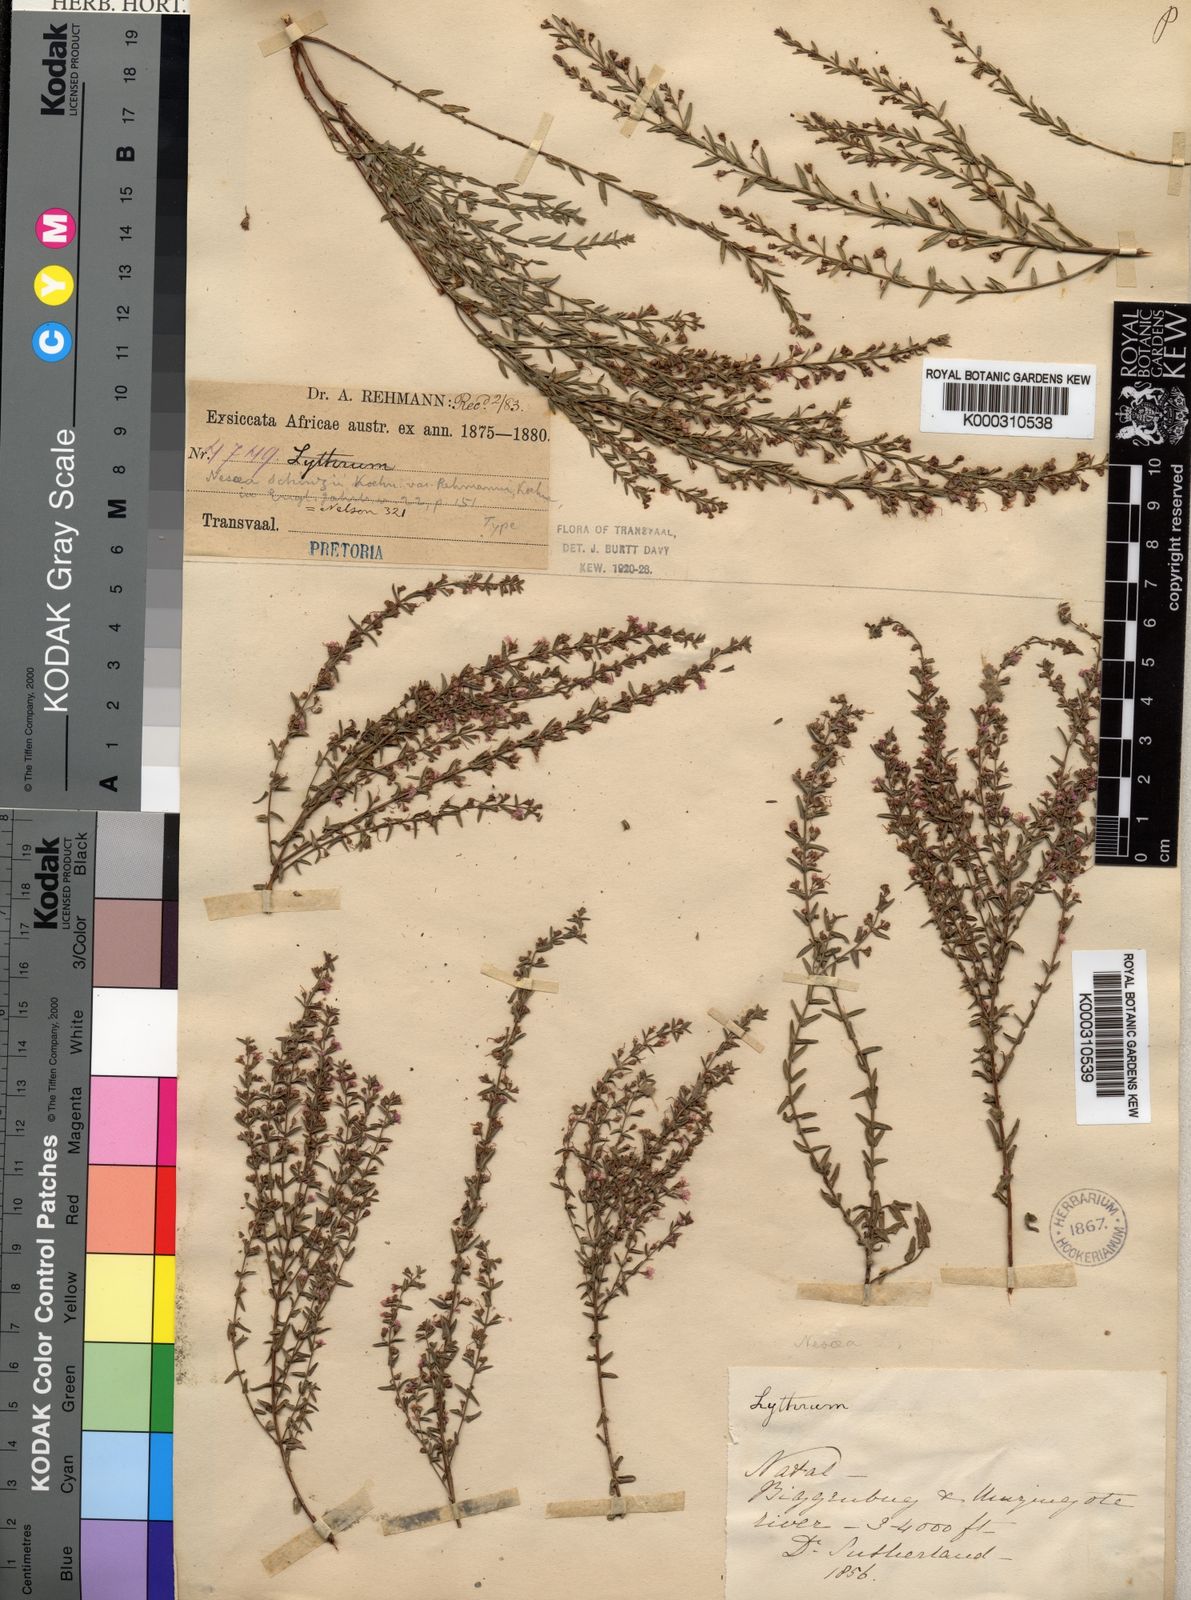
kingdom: Plantae
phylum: Tracheophyta
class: Magnoliopsida
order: Myrtales
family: Lythraceae
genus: Ammannia
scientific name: Ammannia schinzii
